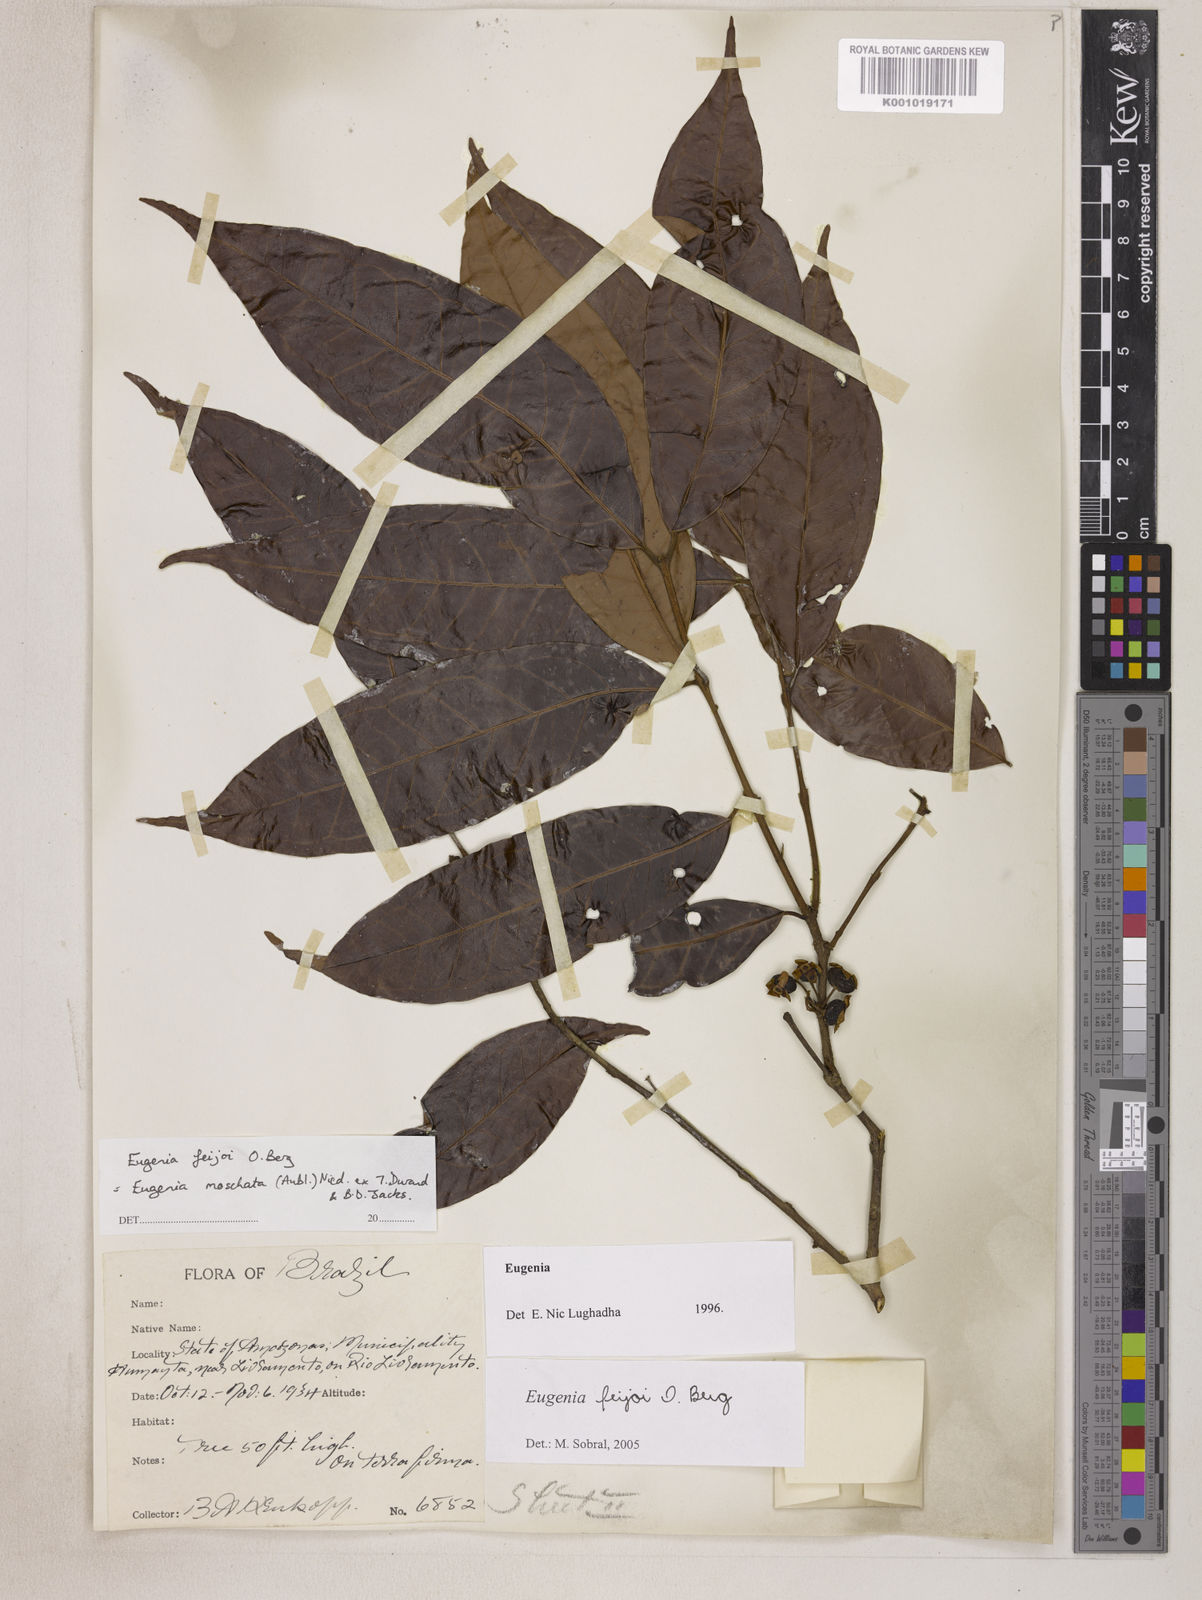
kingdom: Plantae
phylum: Tracheophyta
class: Magnoliopsida
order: Myrtales
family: Myrtaceae
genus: Eugenia
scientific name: Eugenia moschata
